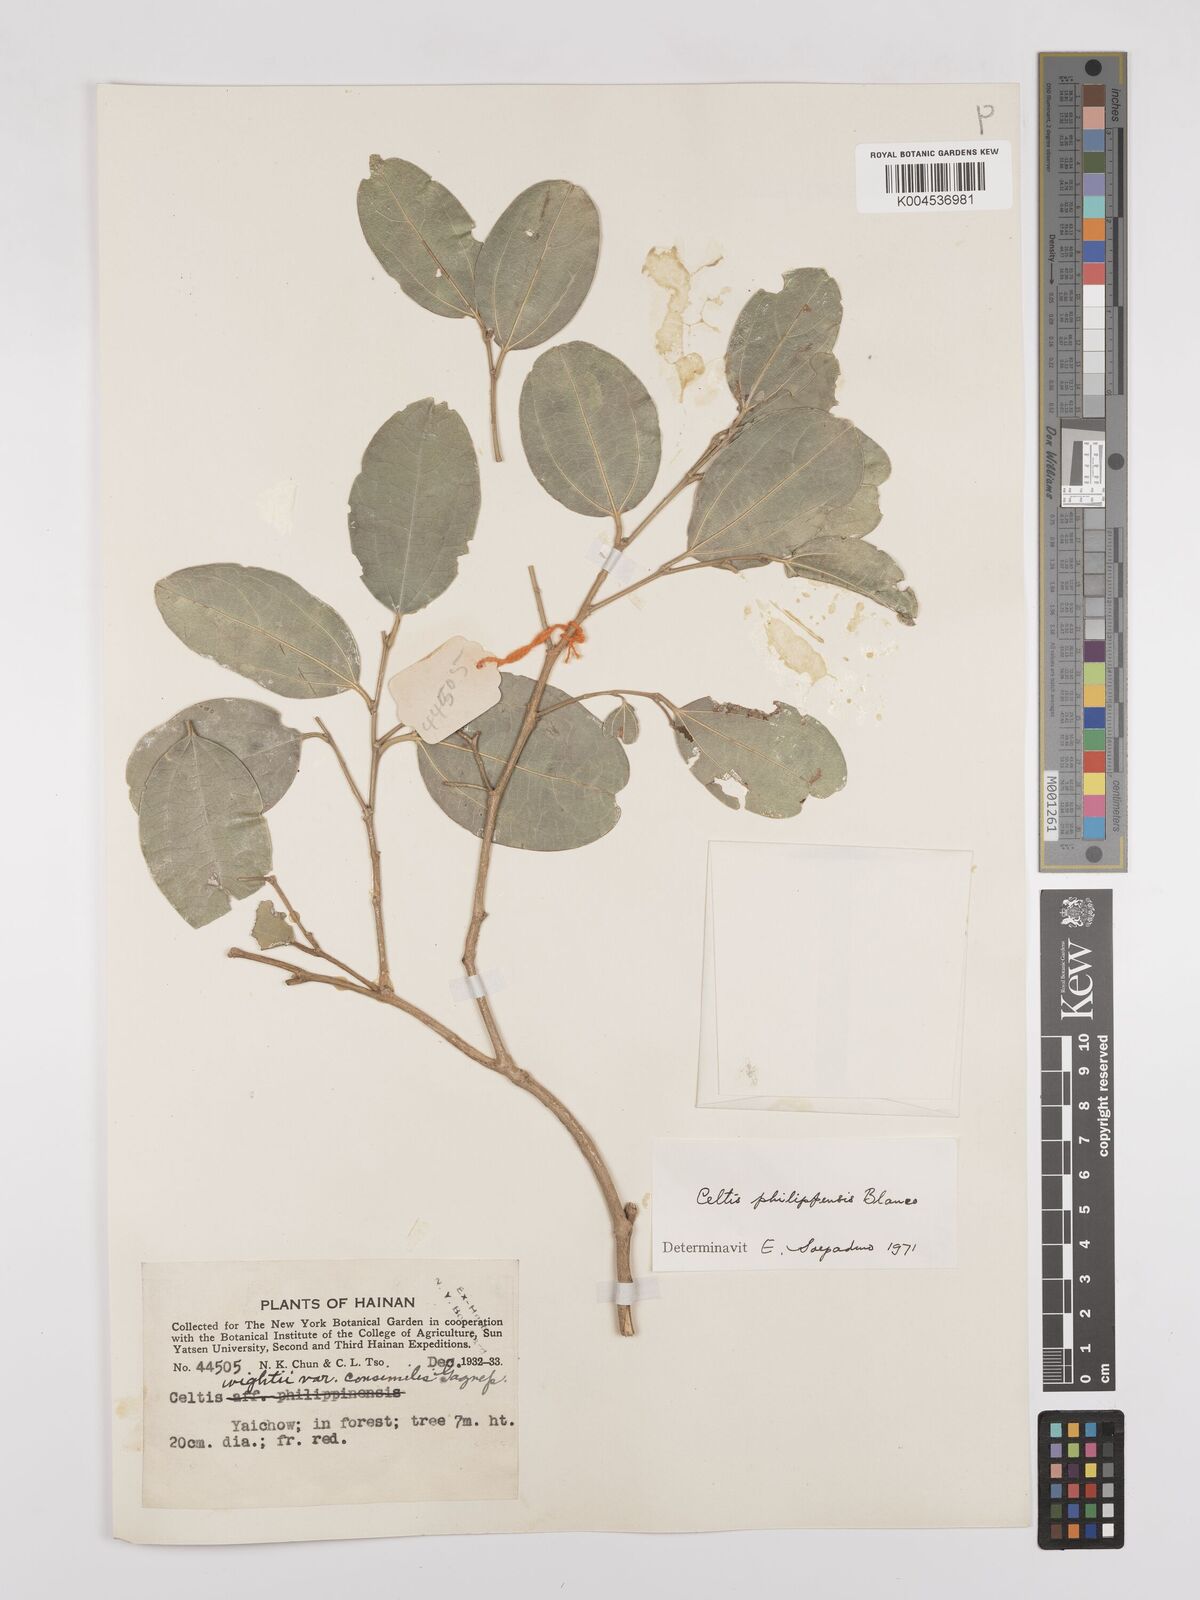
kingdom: Plantae
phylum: Tracheophyta
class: Magnoliopsida
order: Rosales
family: Cannabaceae
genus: Celtis
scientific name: Celtis philippensis
